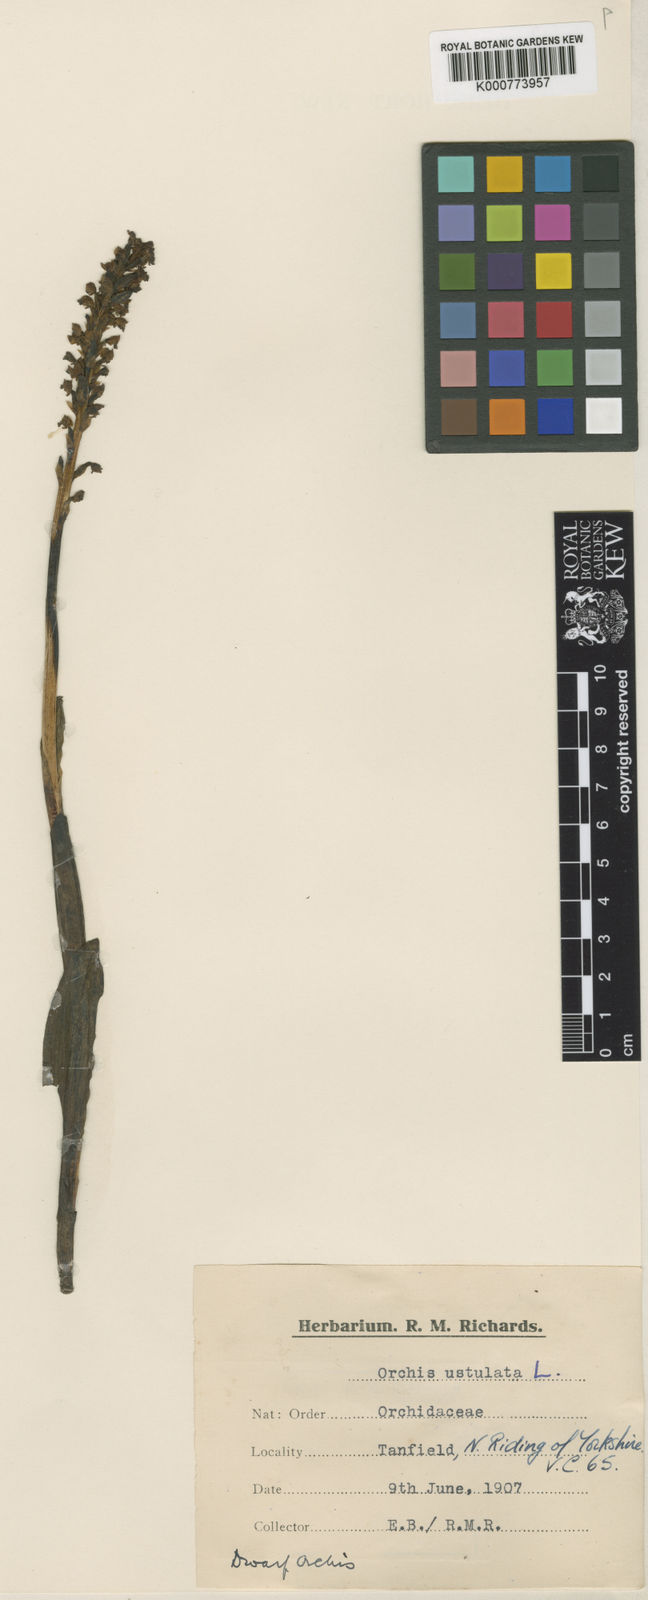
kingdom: Plantae
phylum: Tracheophyta
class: Liliopsida
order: Asparagales
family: Orchidaceae
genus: Neotinea
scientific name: Neotinea ustulata
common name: Burnt orchid
